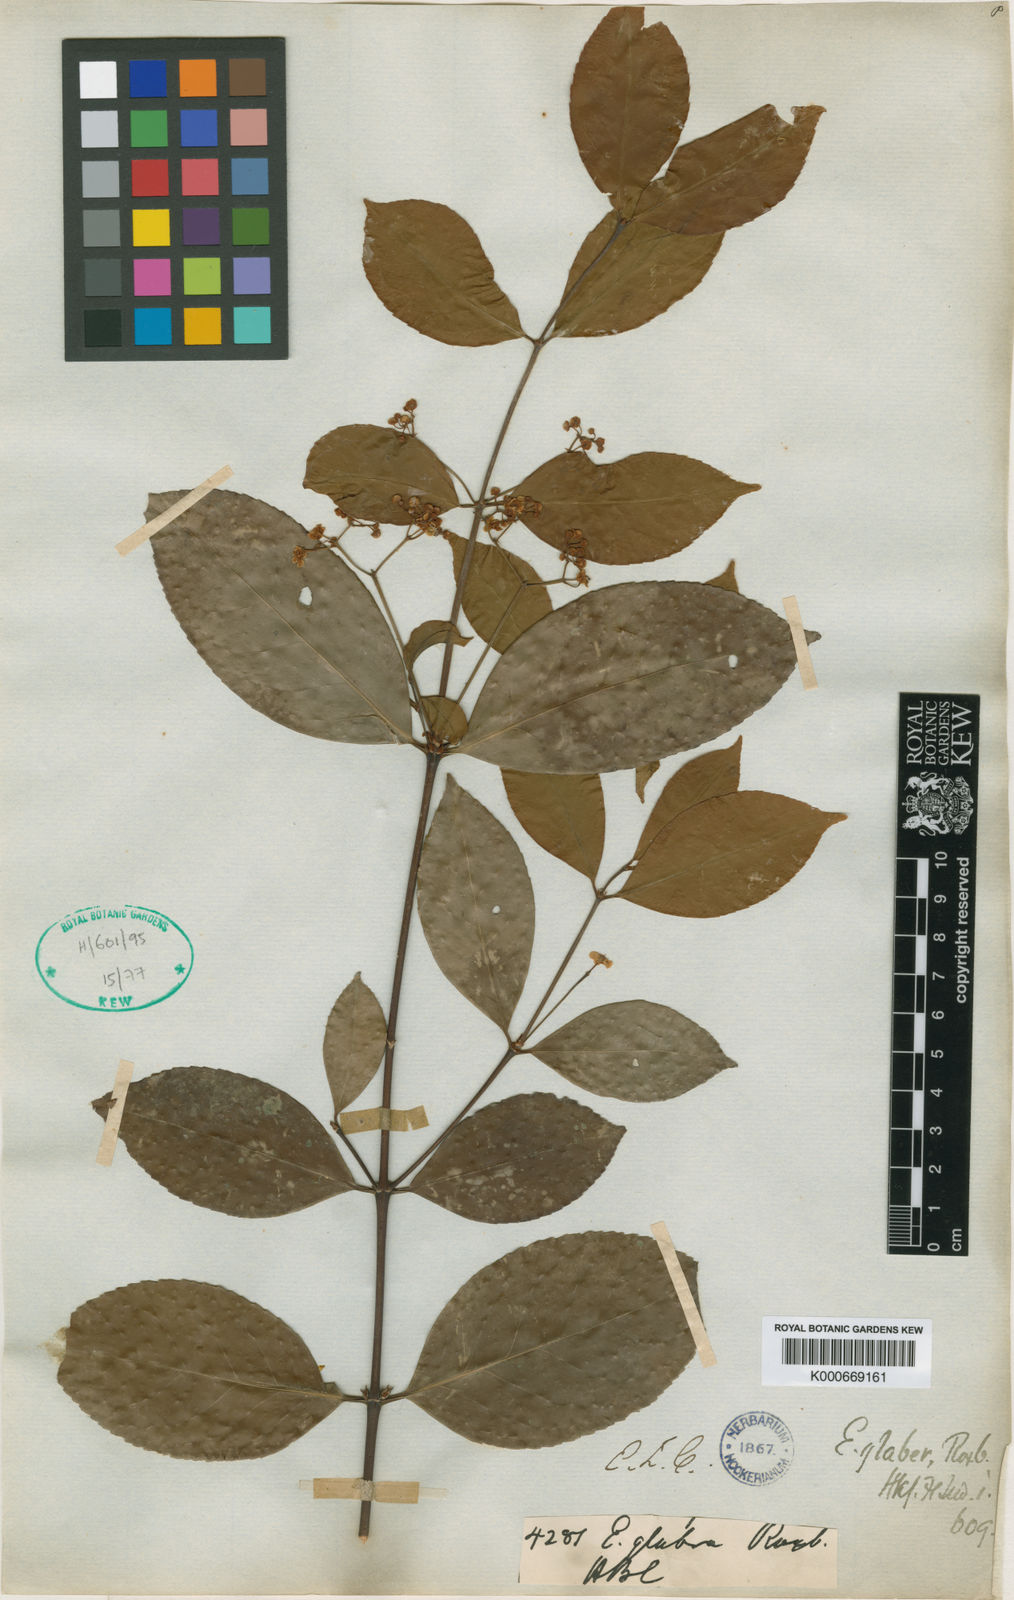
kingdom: Plantae
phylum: Tracheophyta
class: Magnoliopsida
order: Celastrales
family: Celastraceae
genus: Euonymus
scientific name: Euonymus glaber
